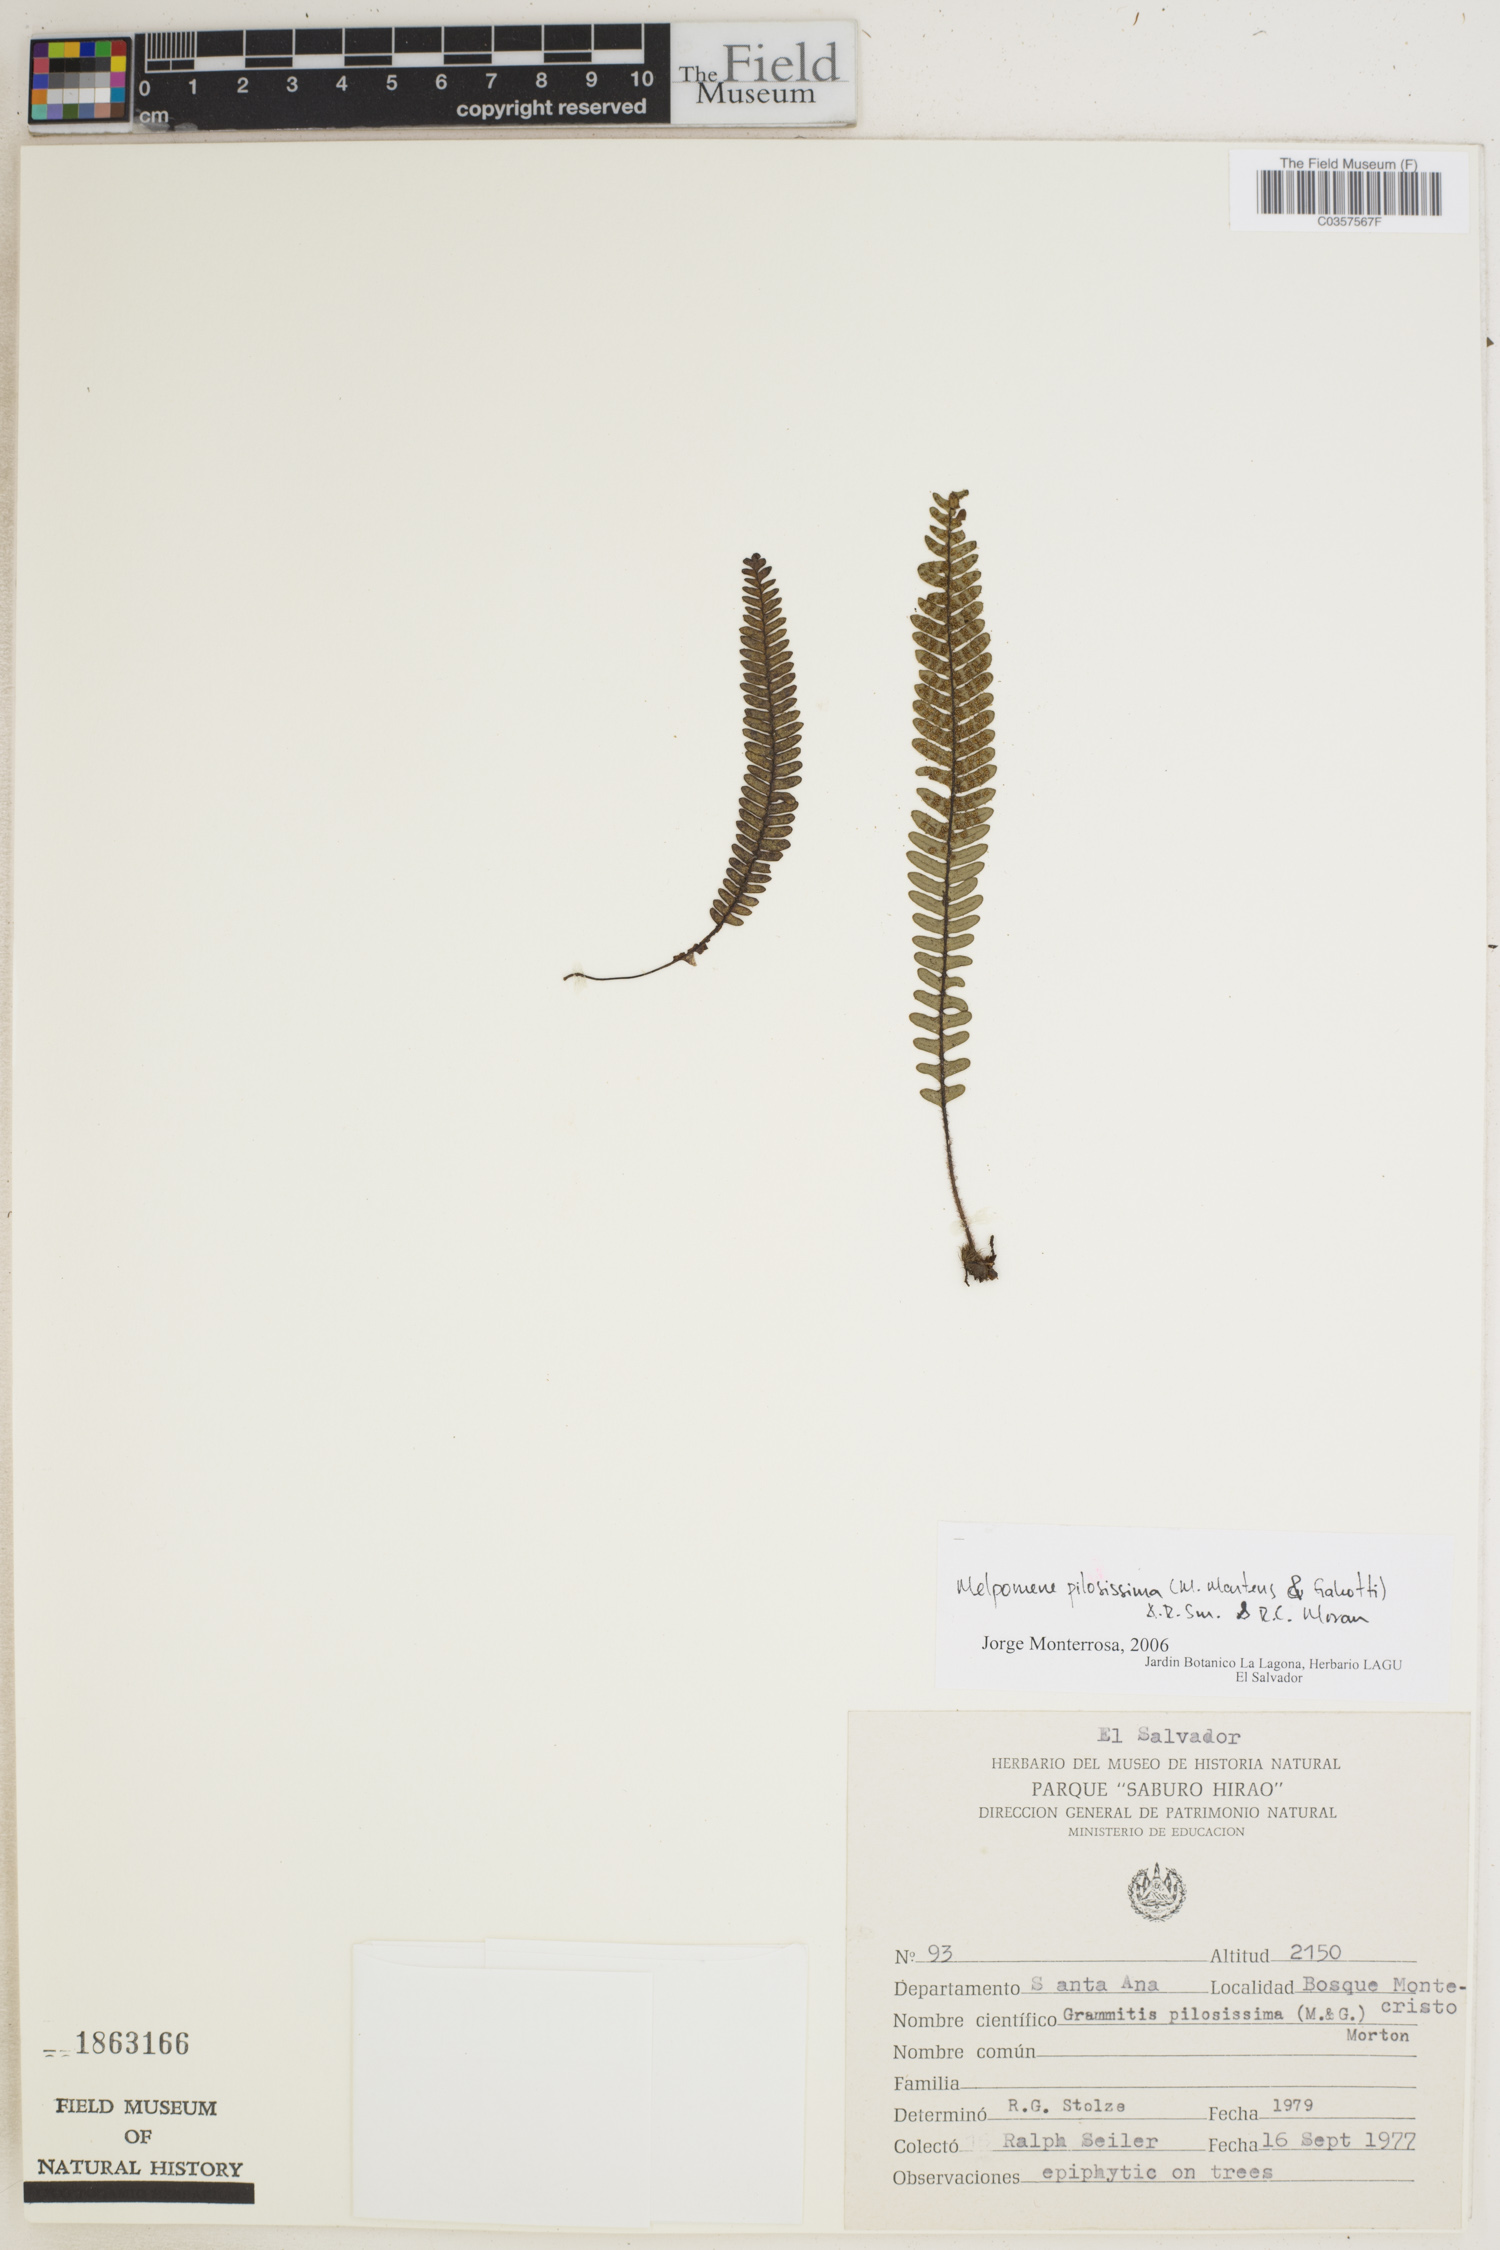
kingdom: Plantae
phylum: Tracheophyta
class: Polypodiopsida
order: Polypodiales
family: Polypodiaceae
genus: Melpomene
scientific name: Melpomene pilosissima
